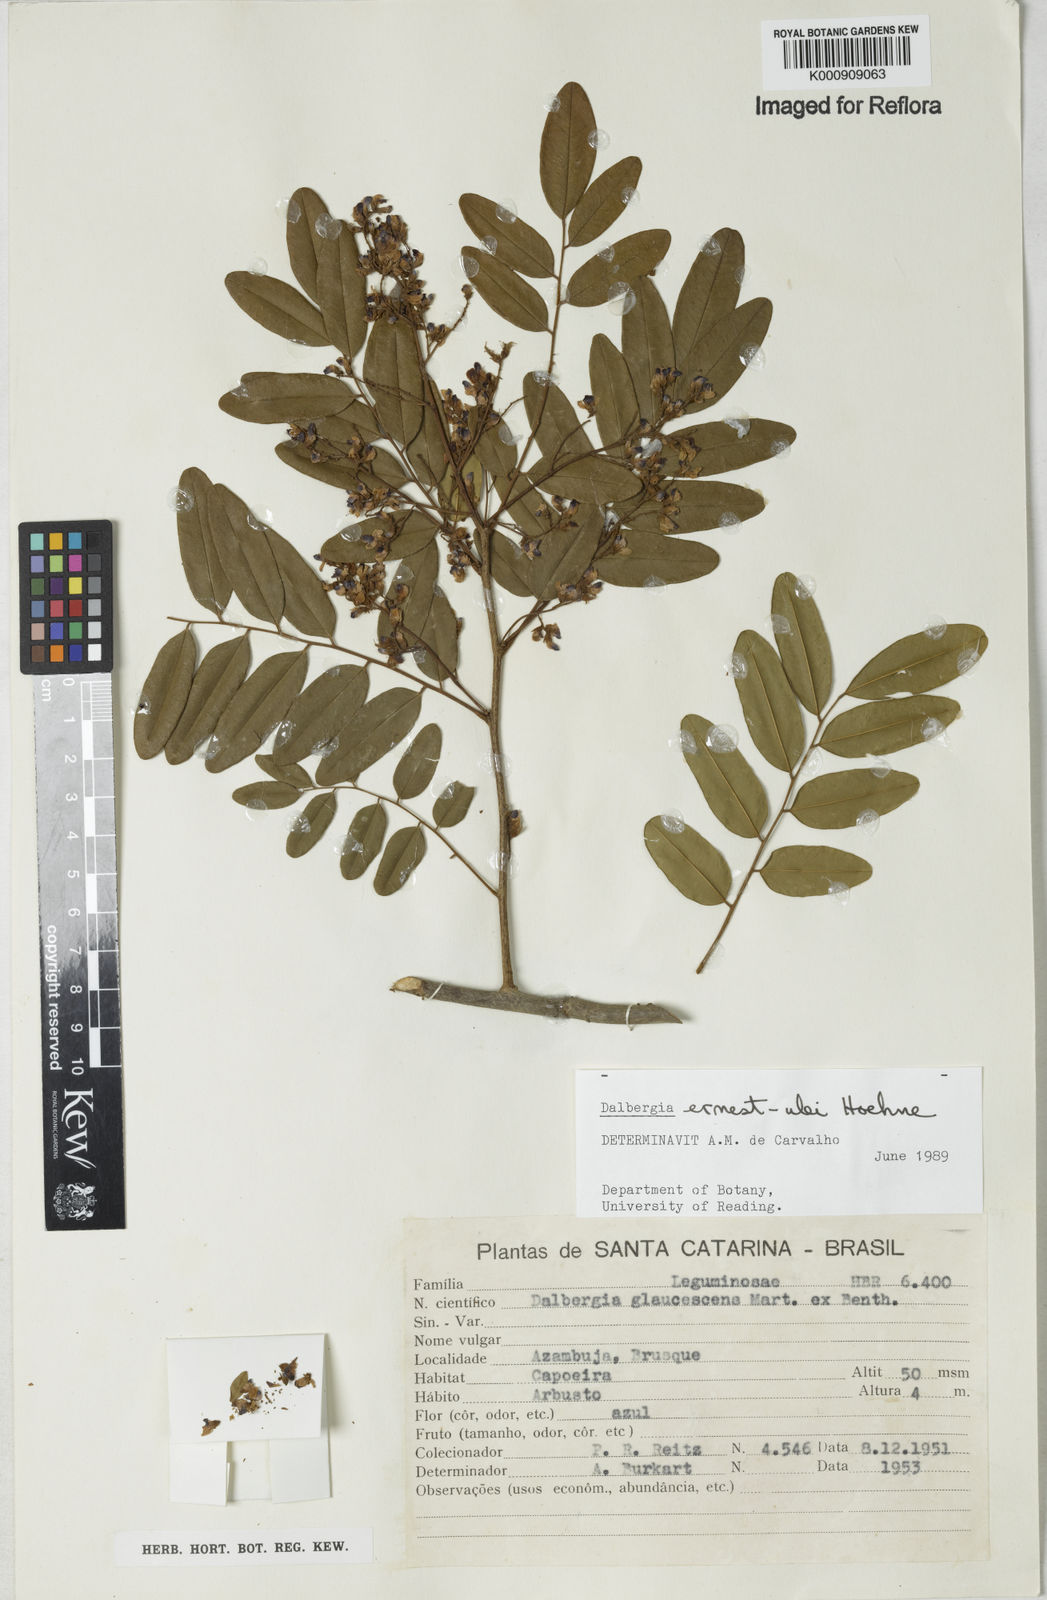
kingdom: Plantae
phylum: Tracheophyta
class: Magnoliopsida
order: Fabales
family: Fabaceae
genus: Dalbergia
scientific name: Dalbergia ernest-ulei
